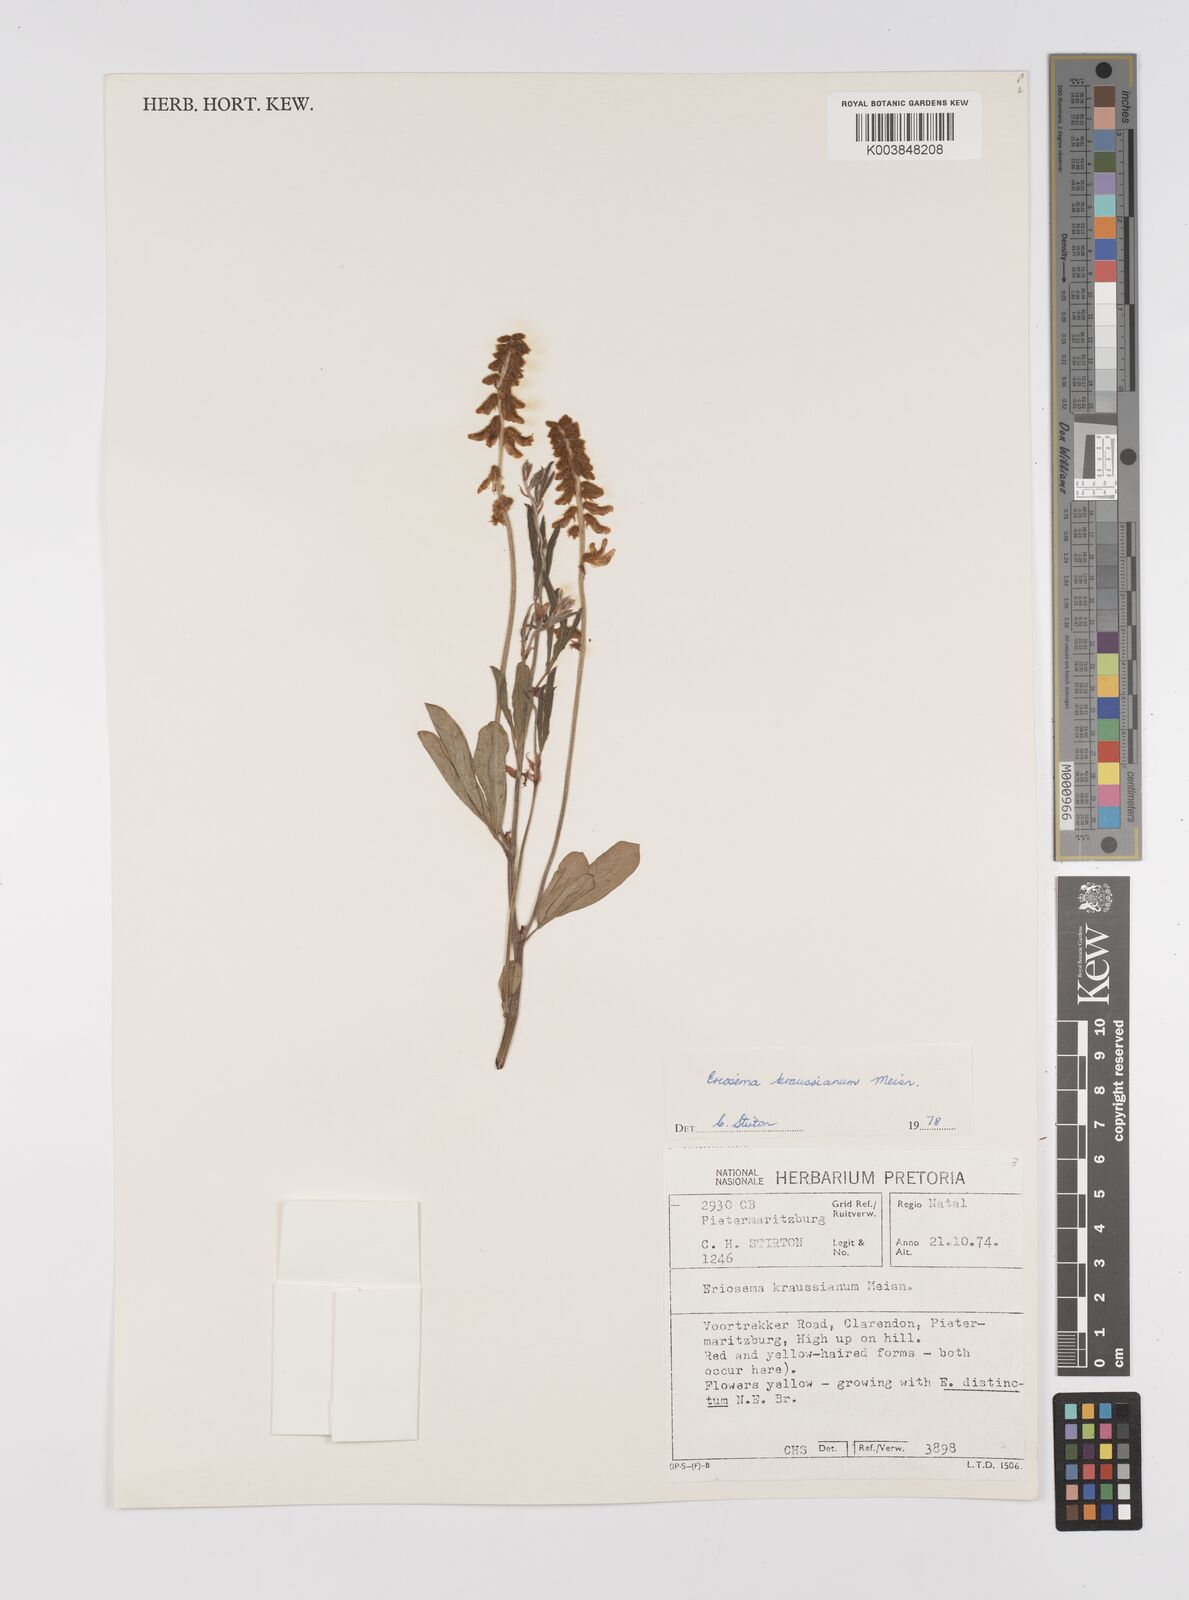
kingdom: Plantae
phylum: Tracheophyta
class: Magnoliopsida
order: Fabales
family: Fabaceae
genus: Eriosema
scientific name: Eriosema kraussianum
